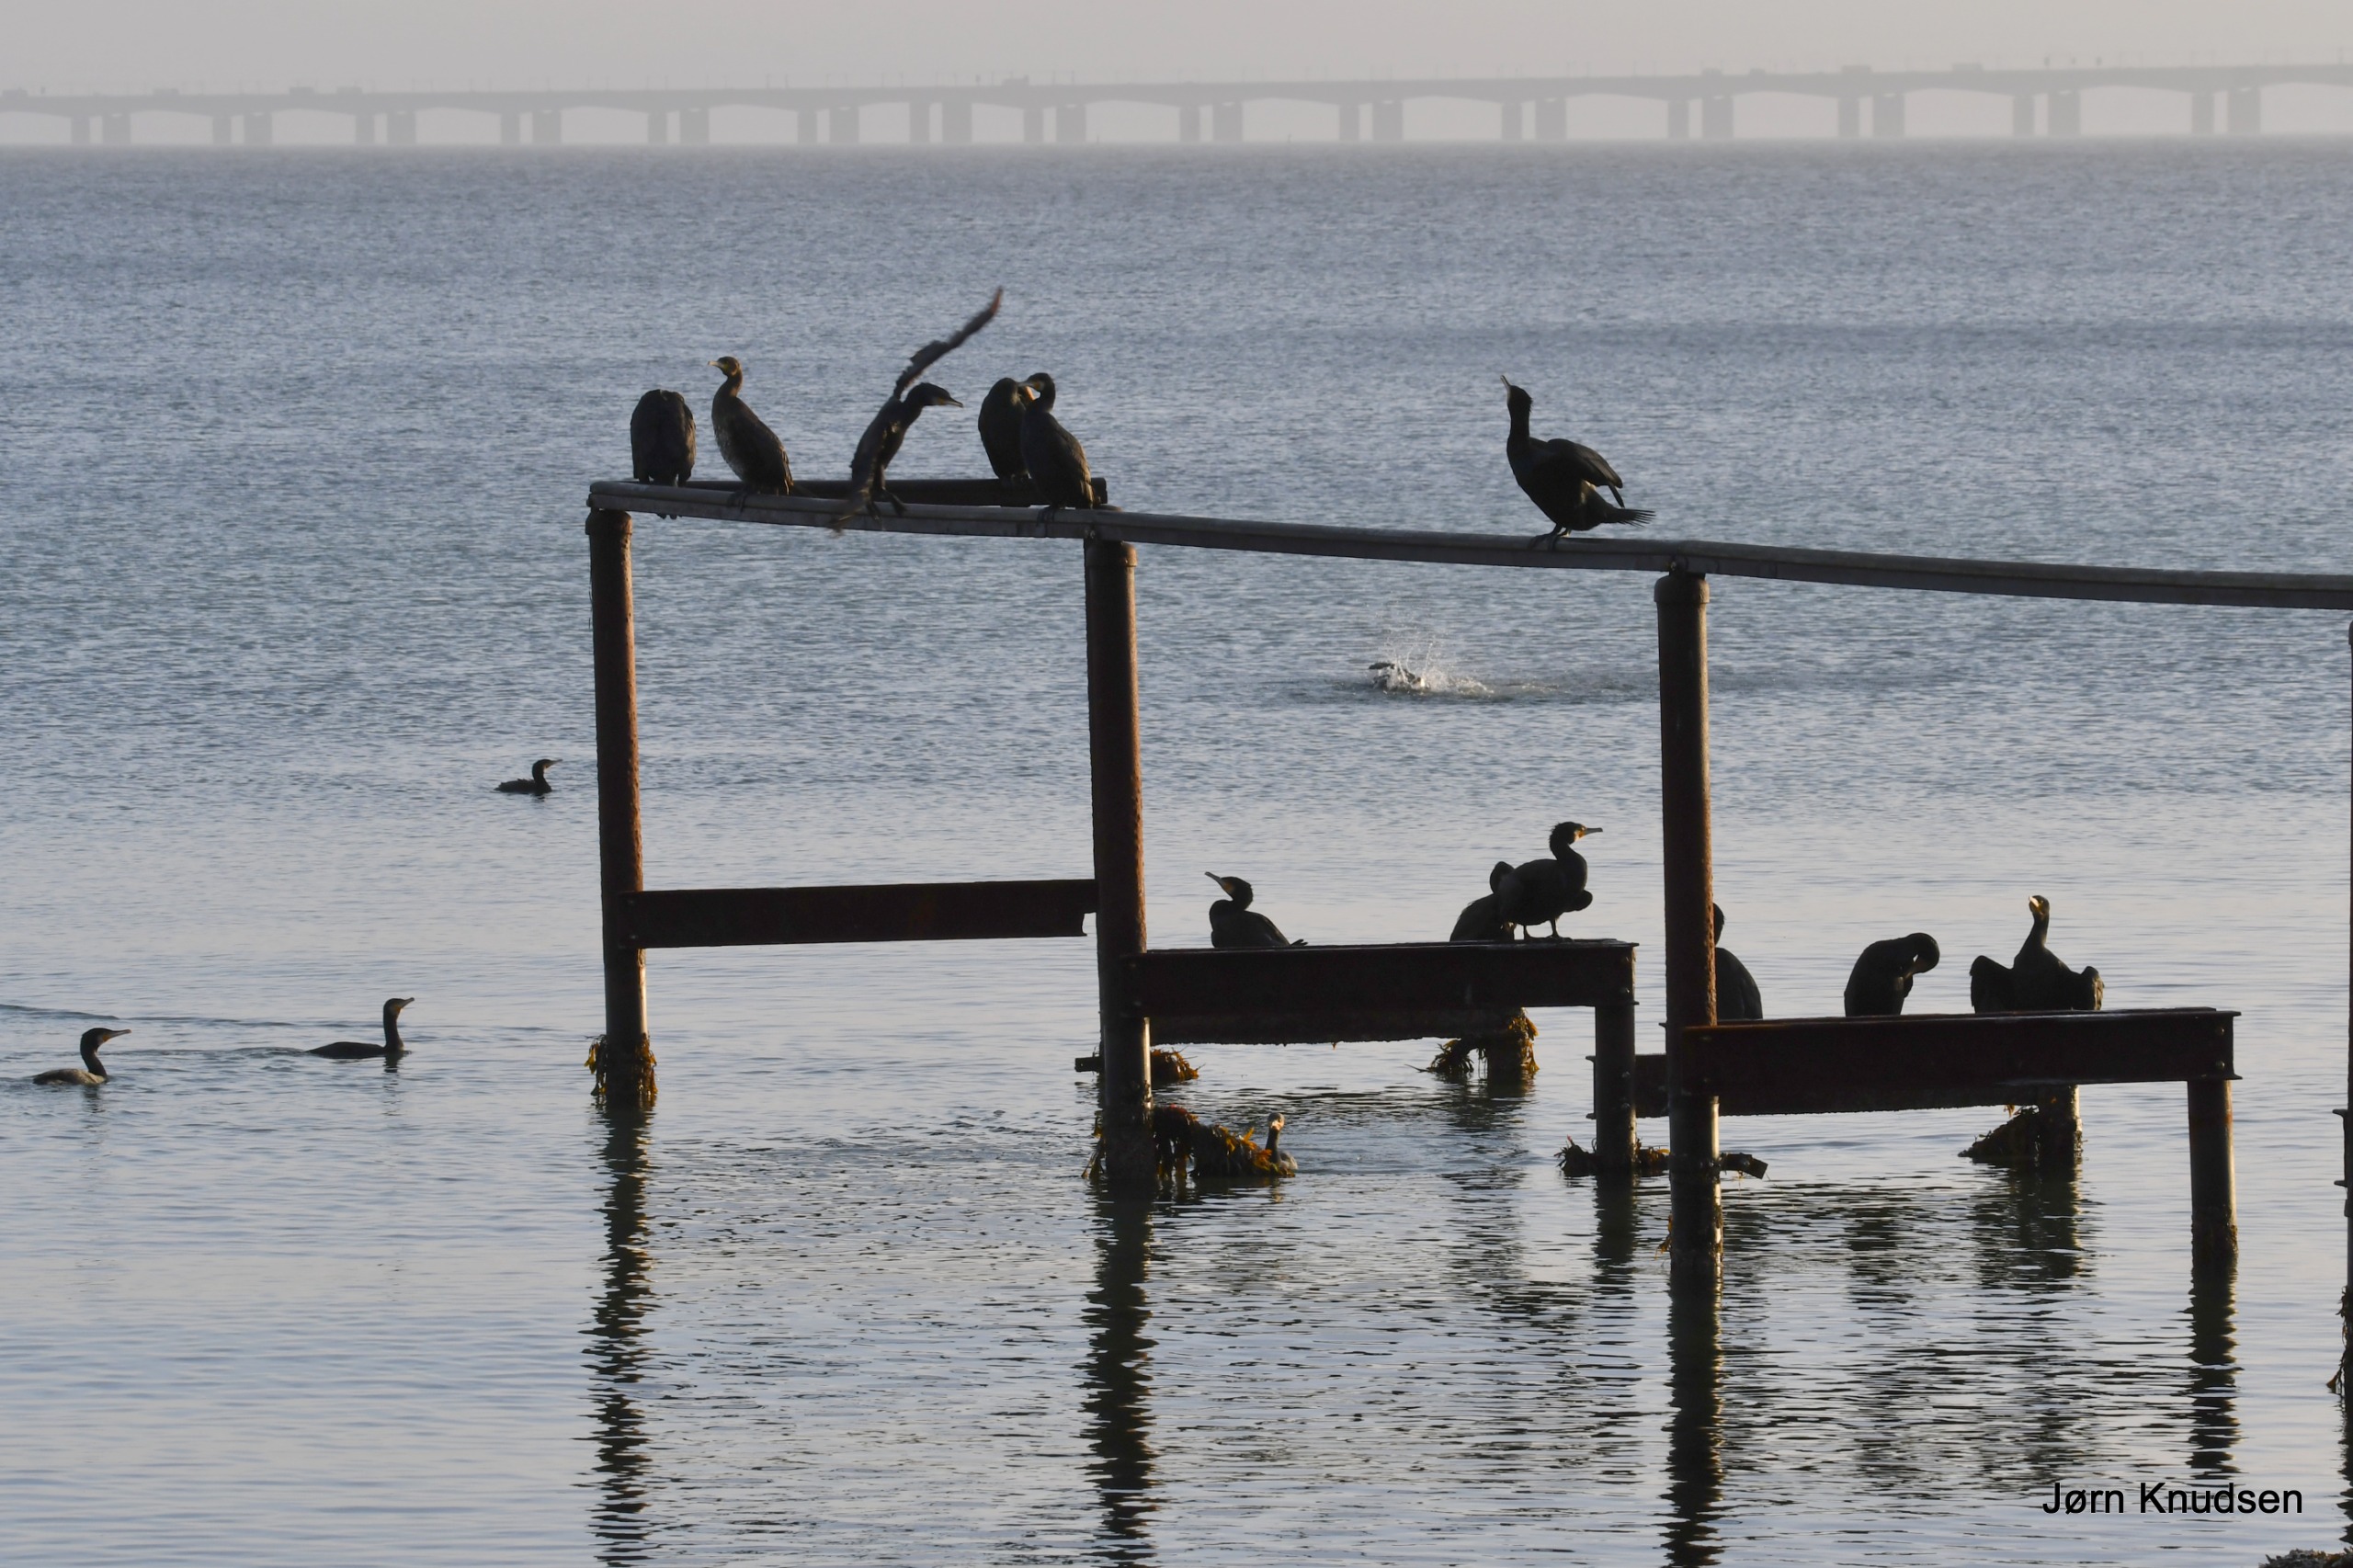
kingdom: Animalia
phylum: Chordata
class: Aves
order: Suliformes
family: Phalacrocoracidae
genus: Phalacrocorax
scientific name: Phalacrocorax carbo
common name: Skarv
